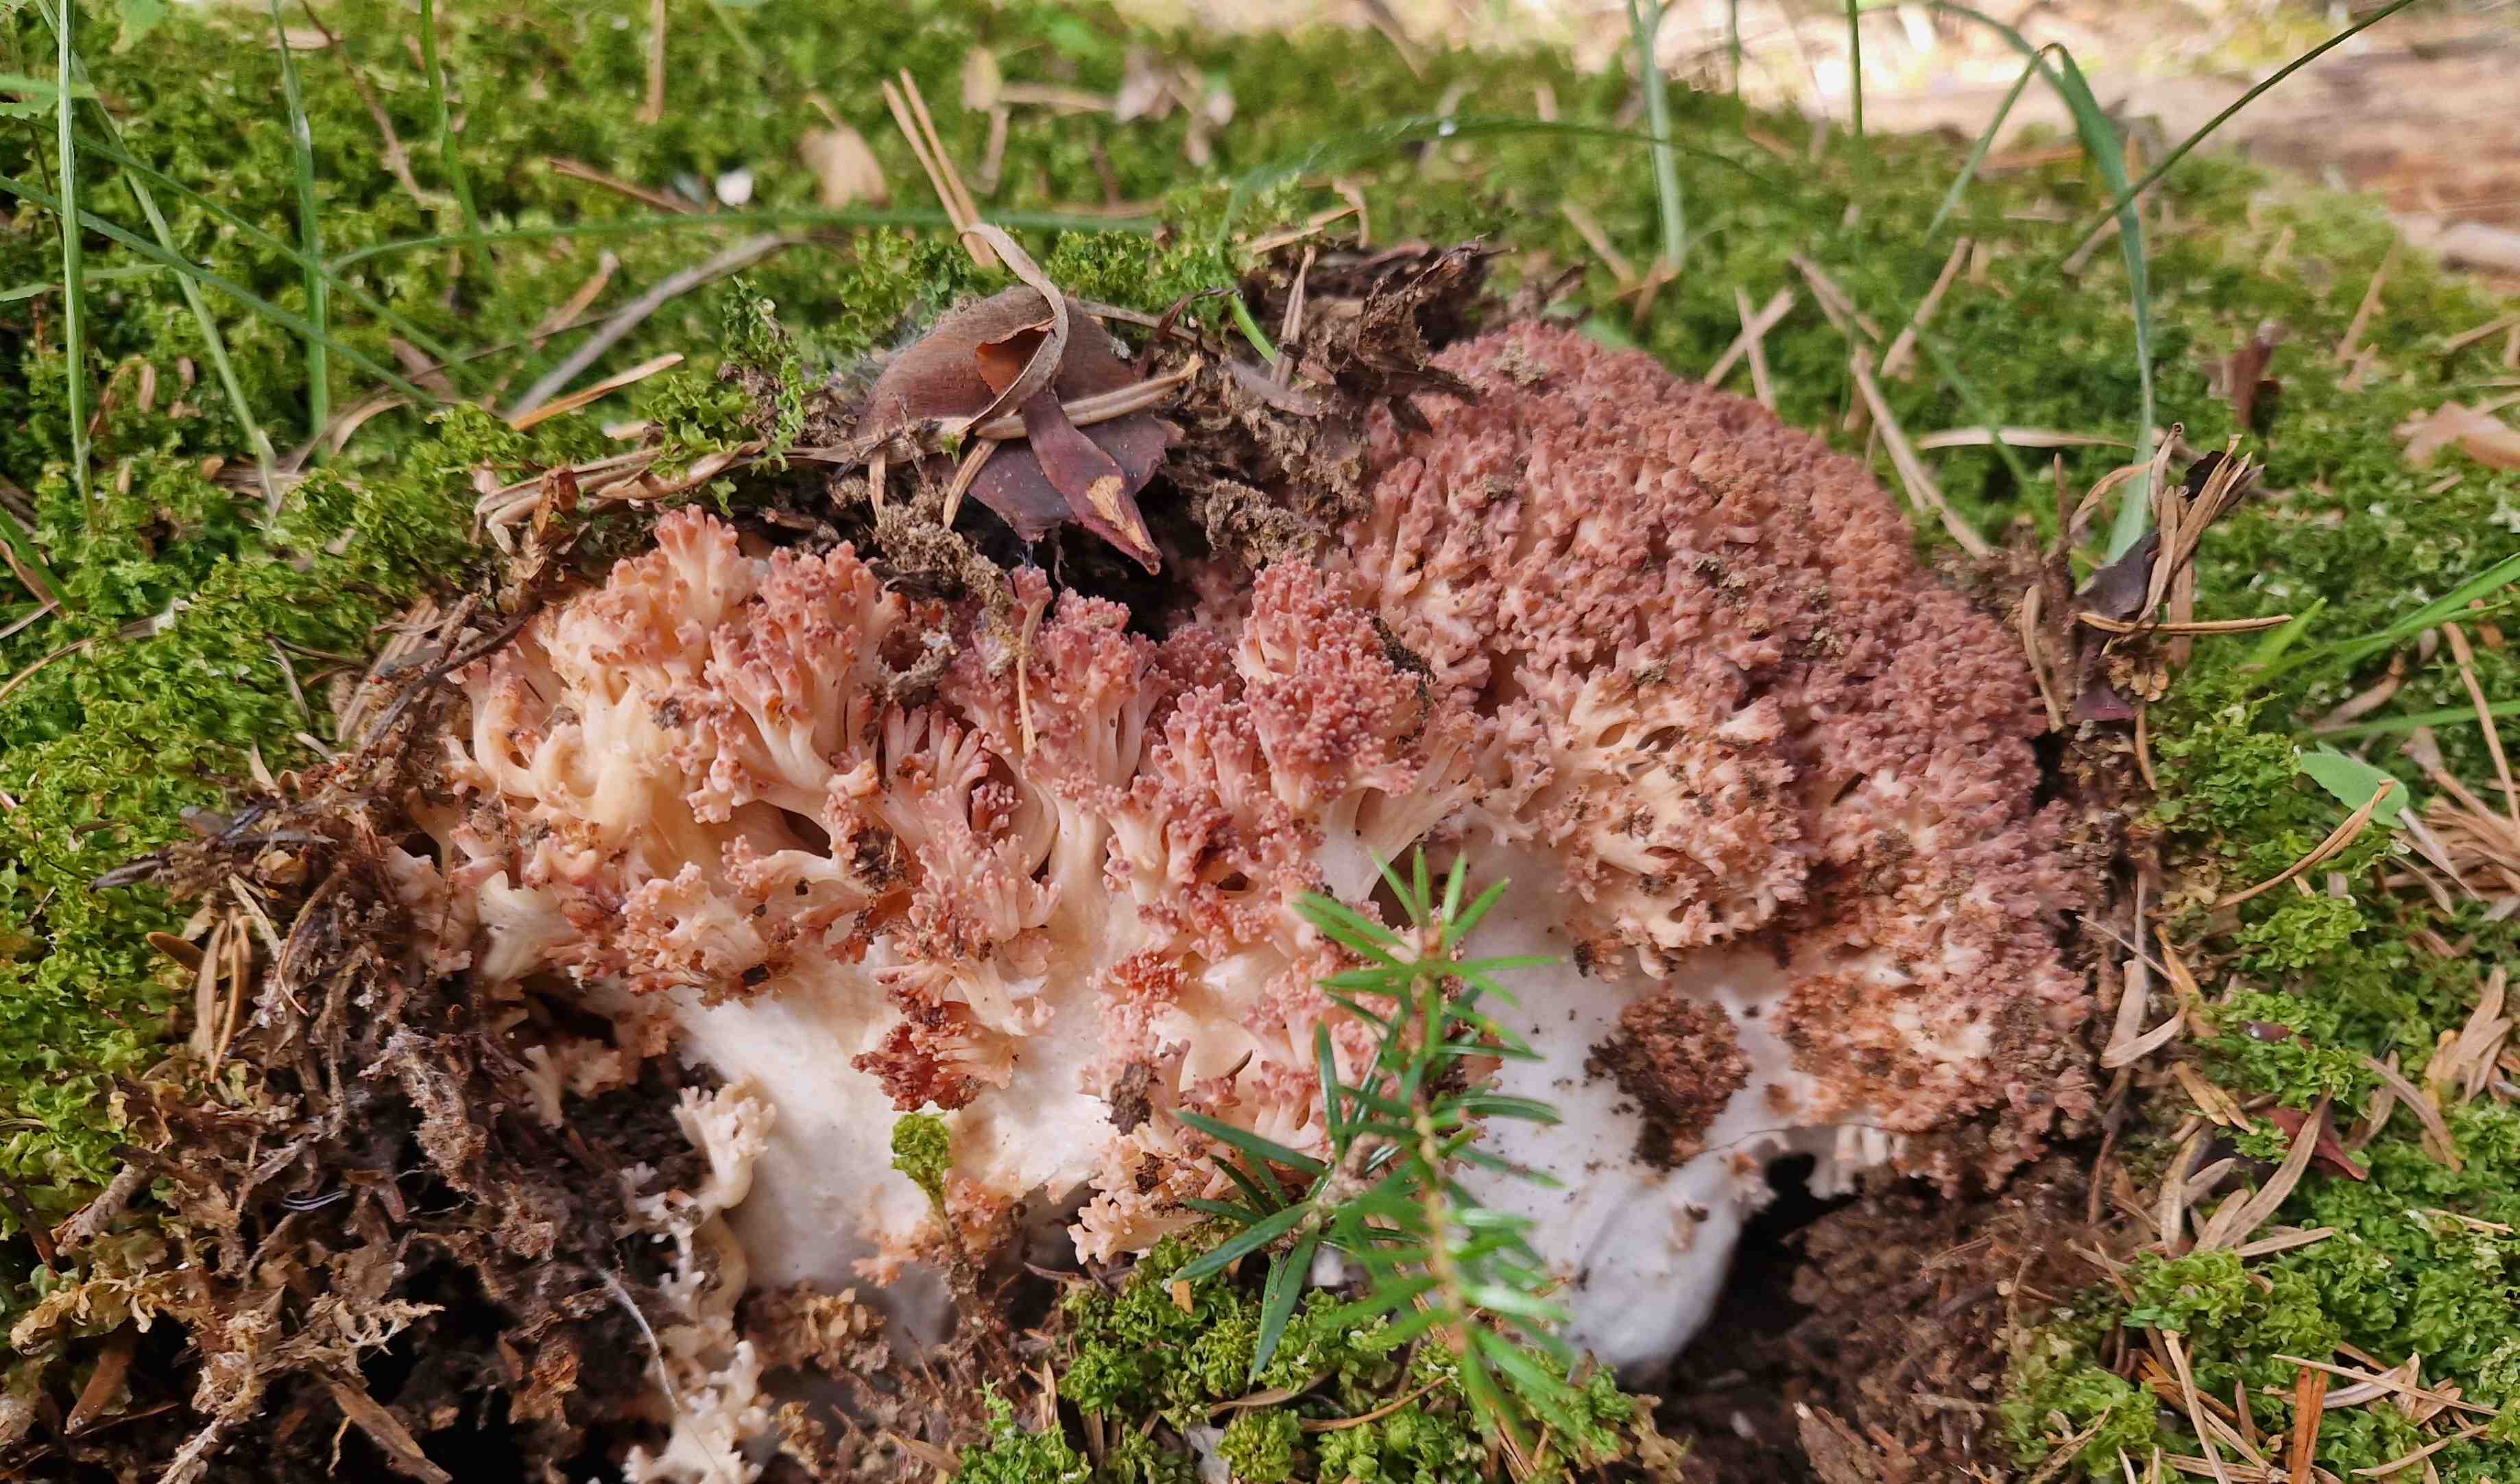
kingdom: Fungi
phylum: Basidiomycota
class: Agaricomycetes
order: Gomphales
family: Gomphaceae
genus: Ramaria
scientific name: Ramaria botrytis
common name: drue-koralsvamp
